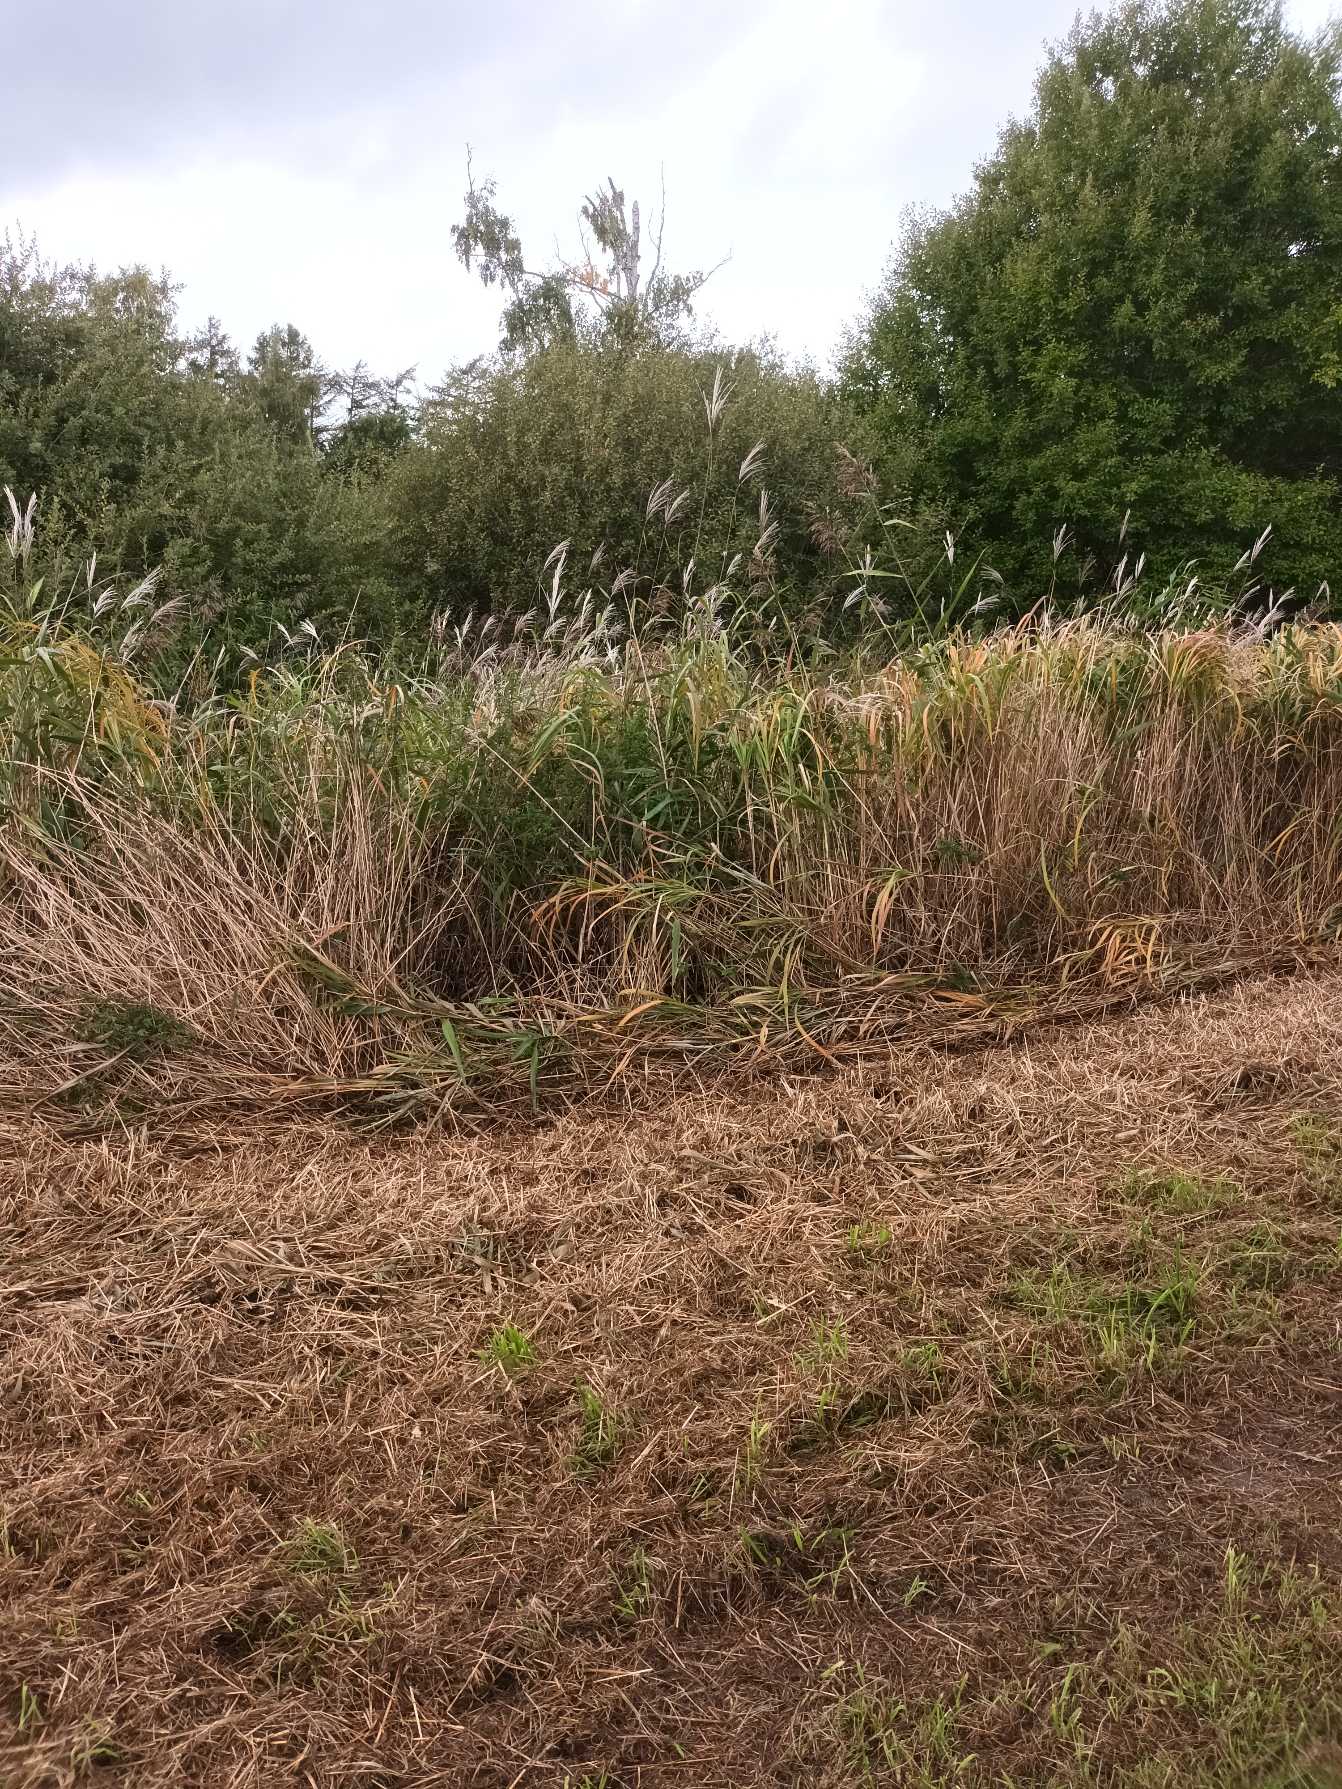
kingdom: Plantae
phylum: Tracheophyta
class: Liliopsida
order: Poales
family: Poaceae
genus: Miscanthus
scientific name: Miscanthus sacchariflorus
